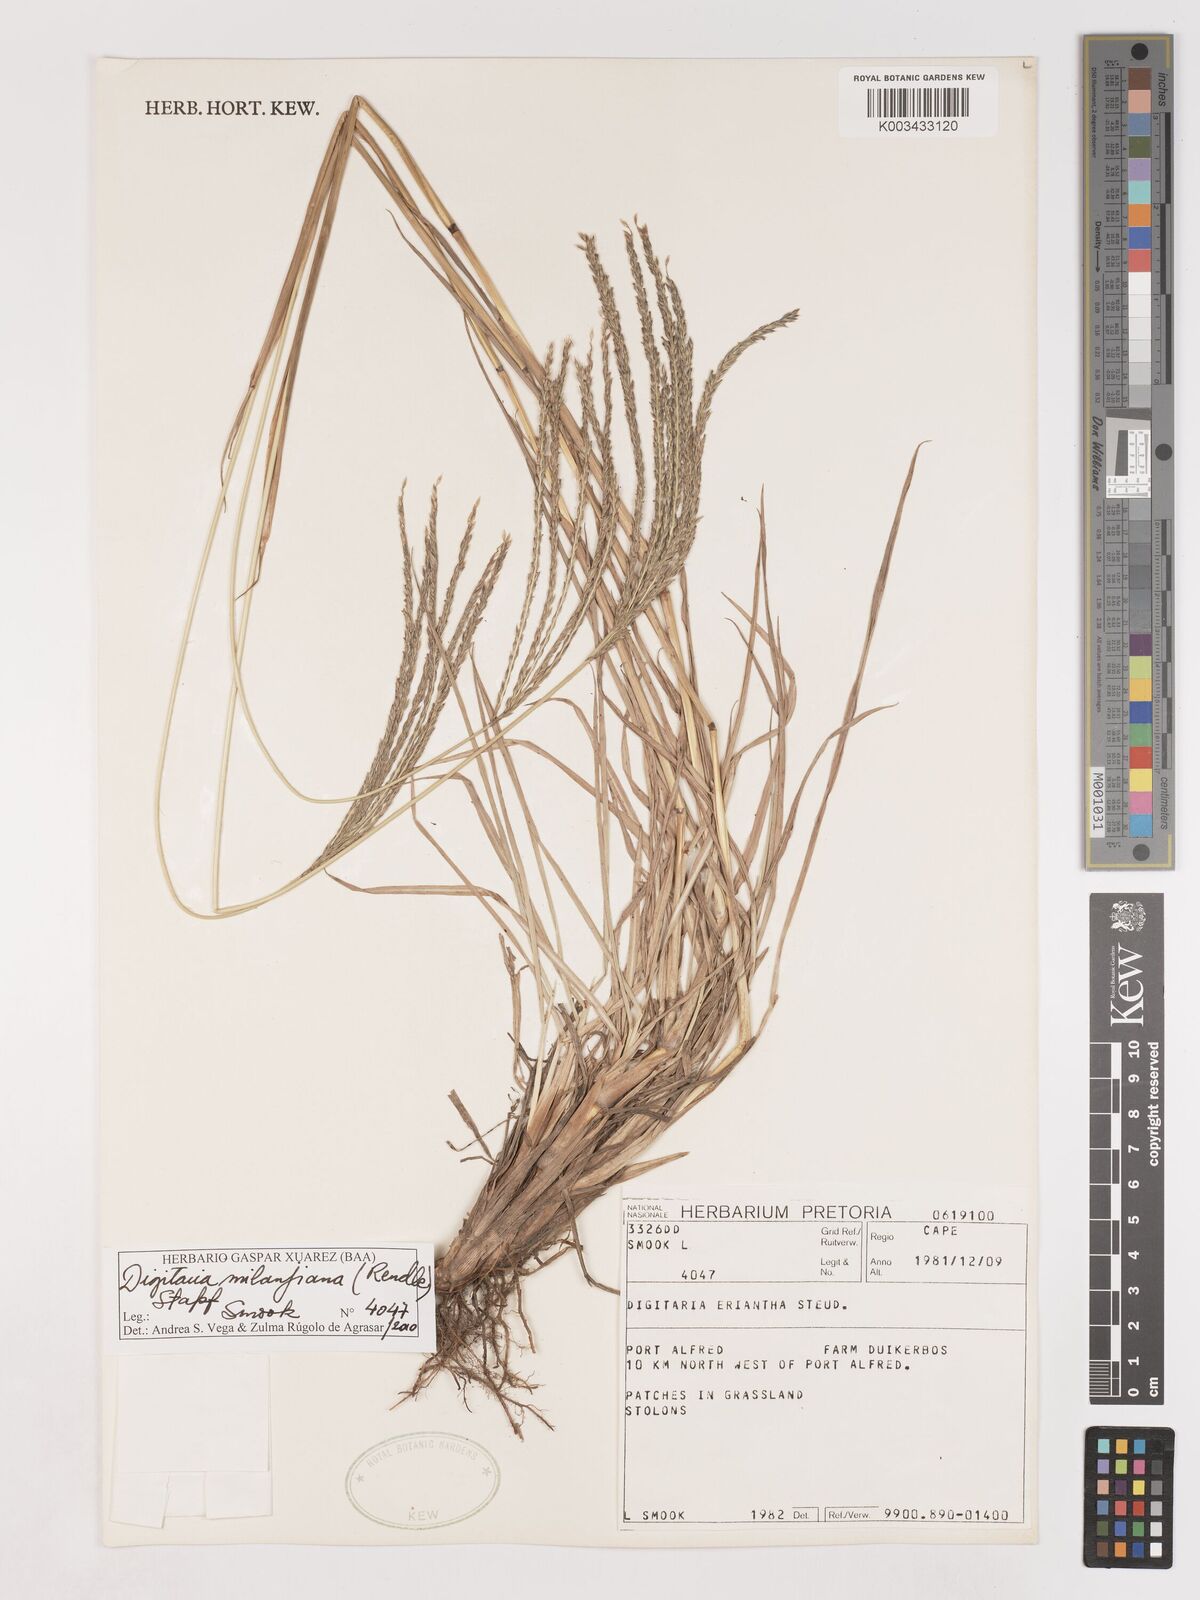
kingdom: Plantae
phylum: Tracheophyta
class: Liliopsida
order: Poales
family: Poaceae
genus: Digitaria
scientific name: Digitaria milanjiana
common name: Madagascar crabgrass
